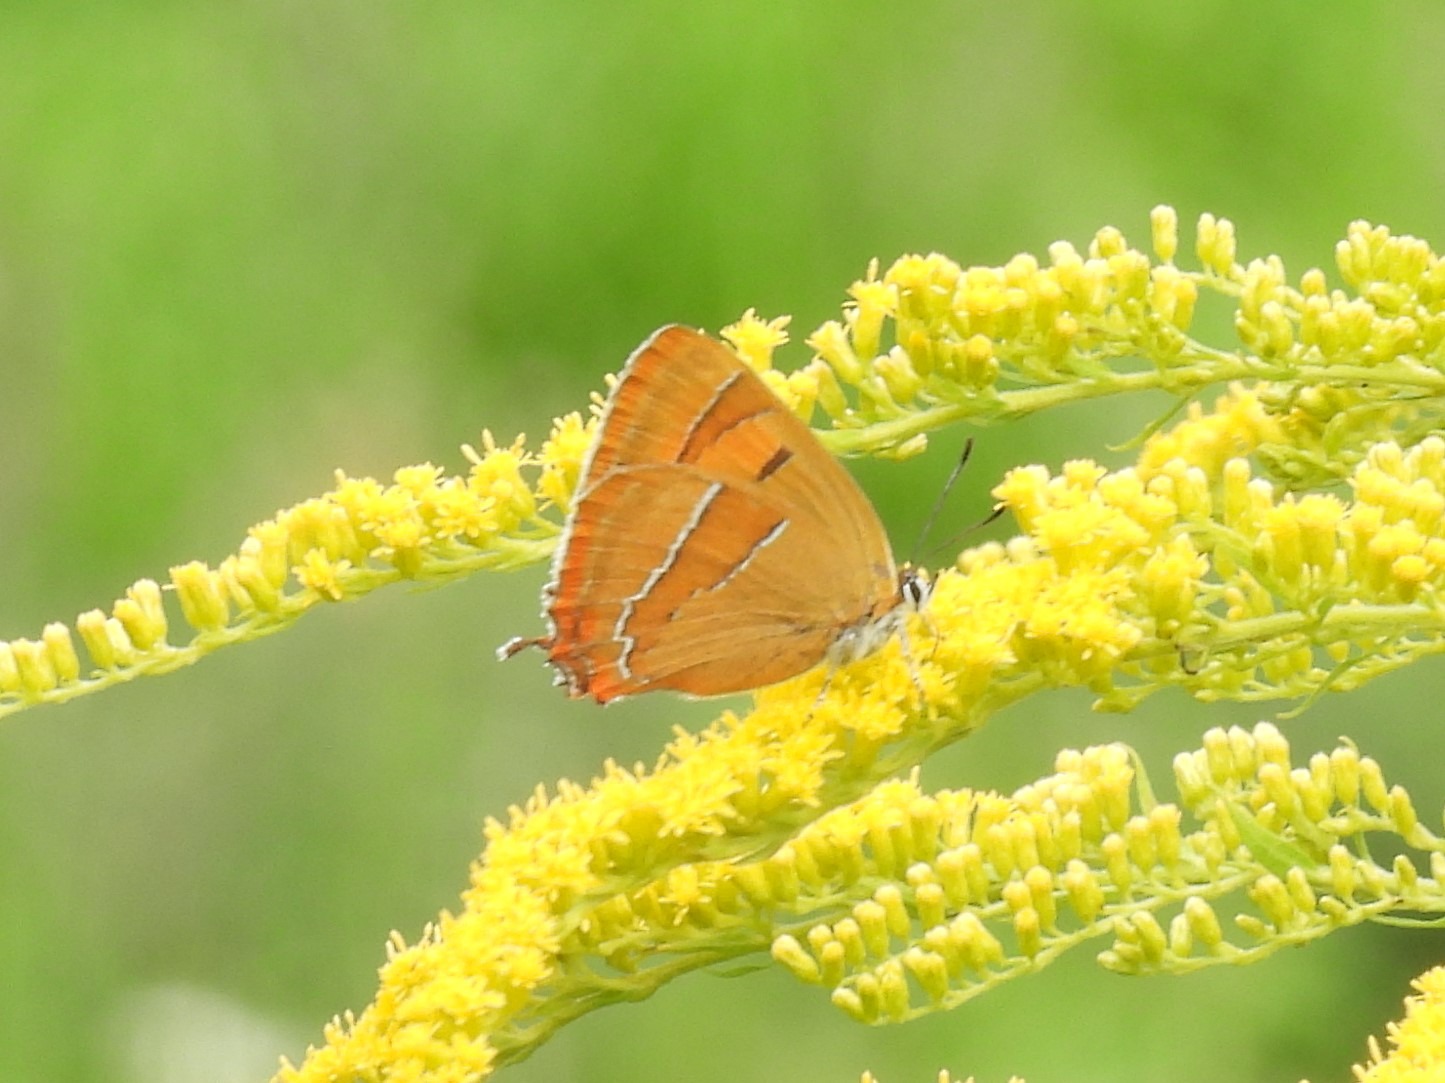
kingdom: Animalia
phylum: Arthropoda
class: Insecta
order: Lepidoptera
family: Lycaenidae
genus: Thecla
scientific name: Thecla betulae
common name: Guldhale
